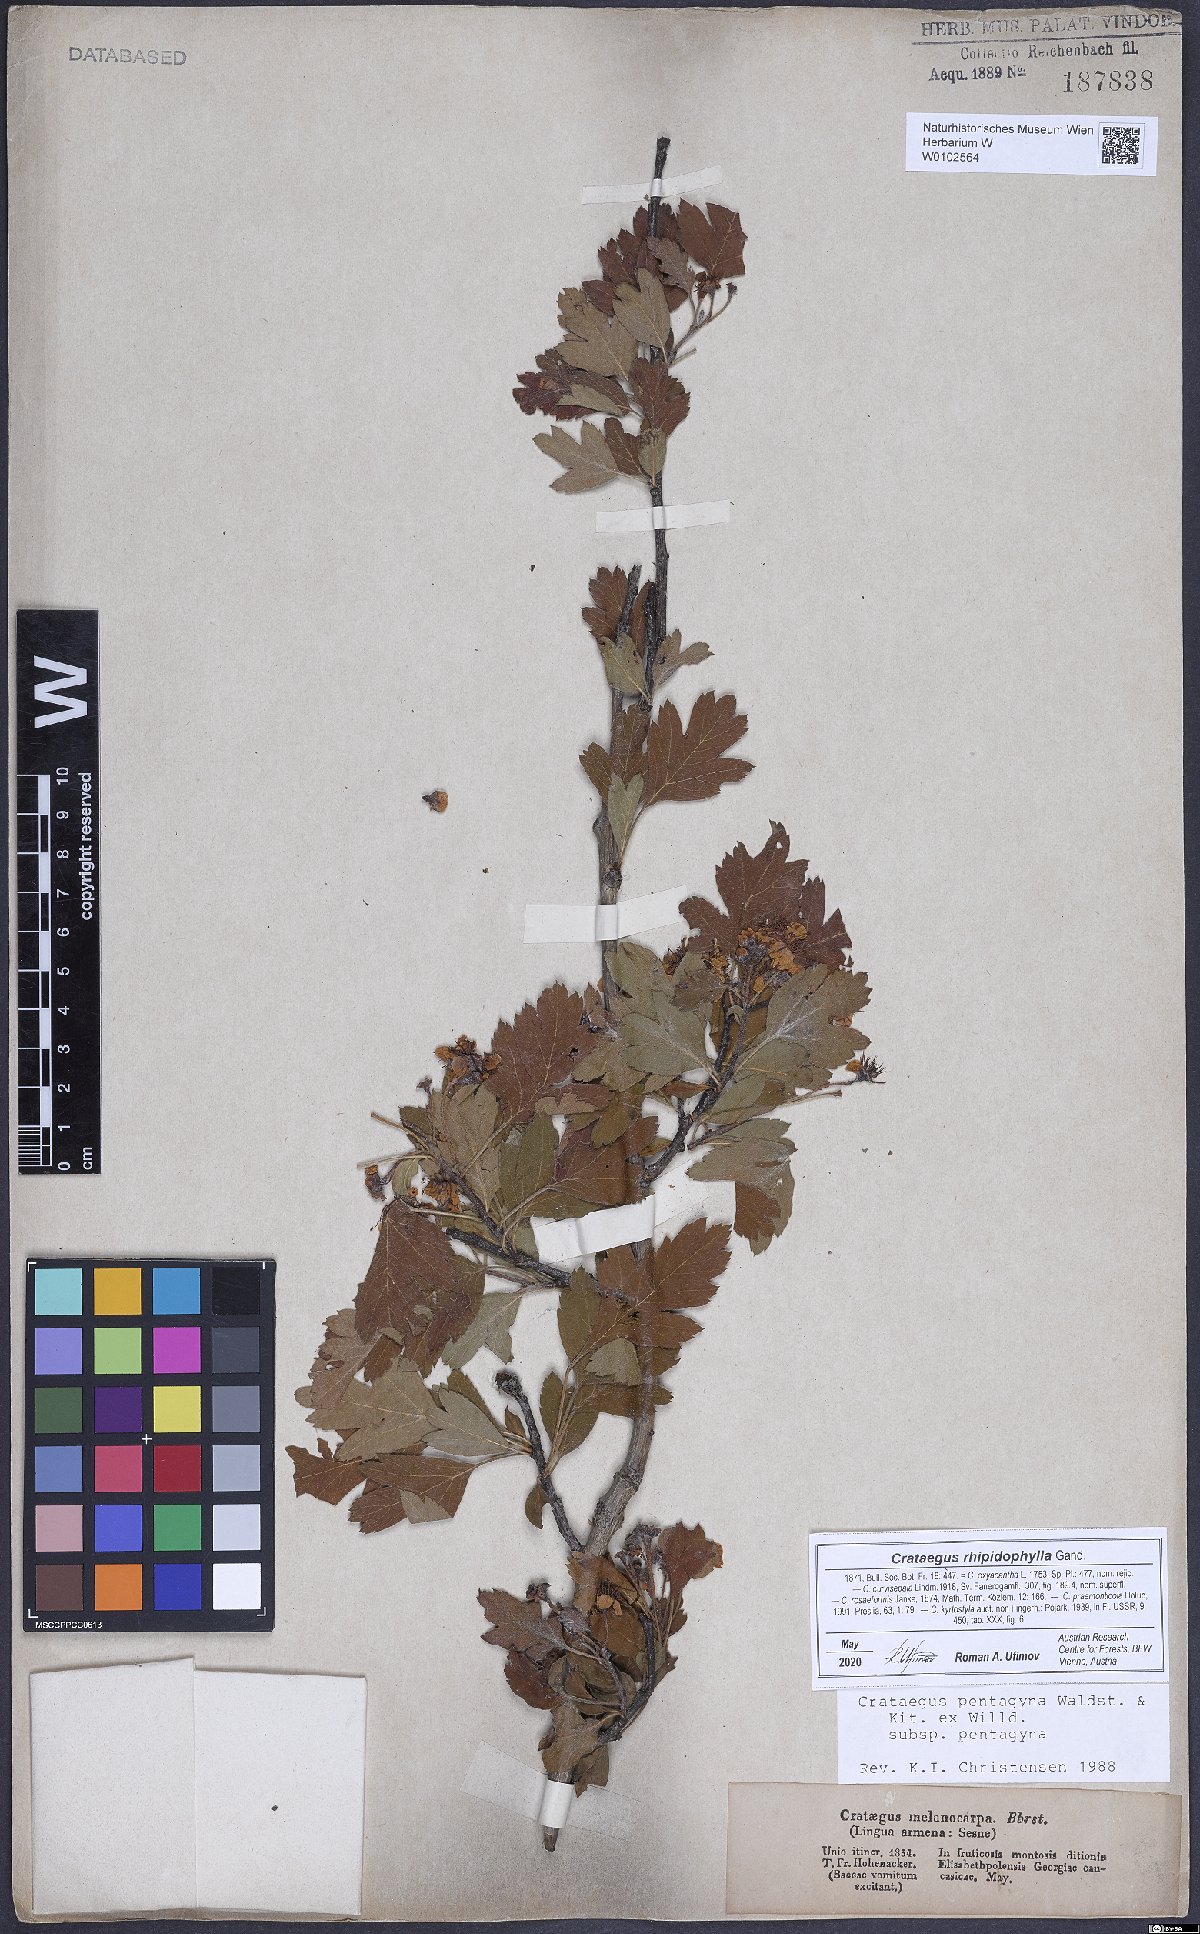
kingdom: Plantae
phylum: Tracheophyta
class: Magnoliopsida
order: Rosales
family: Rosaceae
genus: Crataegus
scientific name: Crataegus pentagyna
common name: Small-flowered black hawthorn
